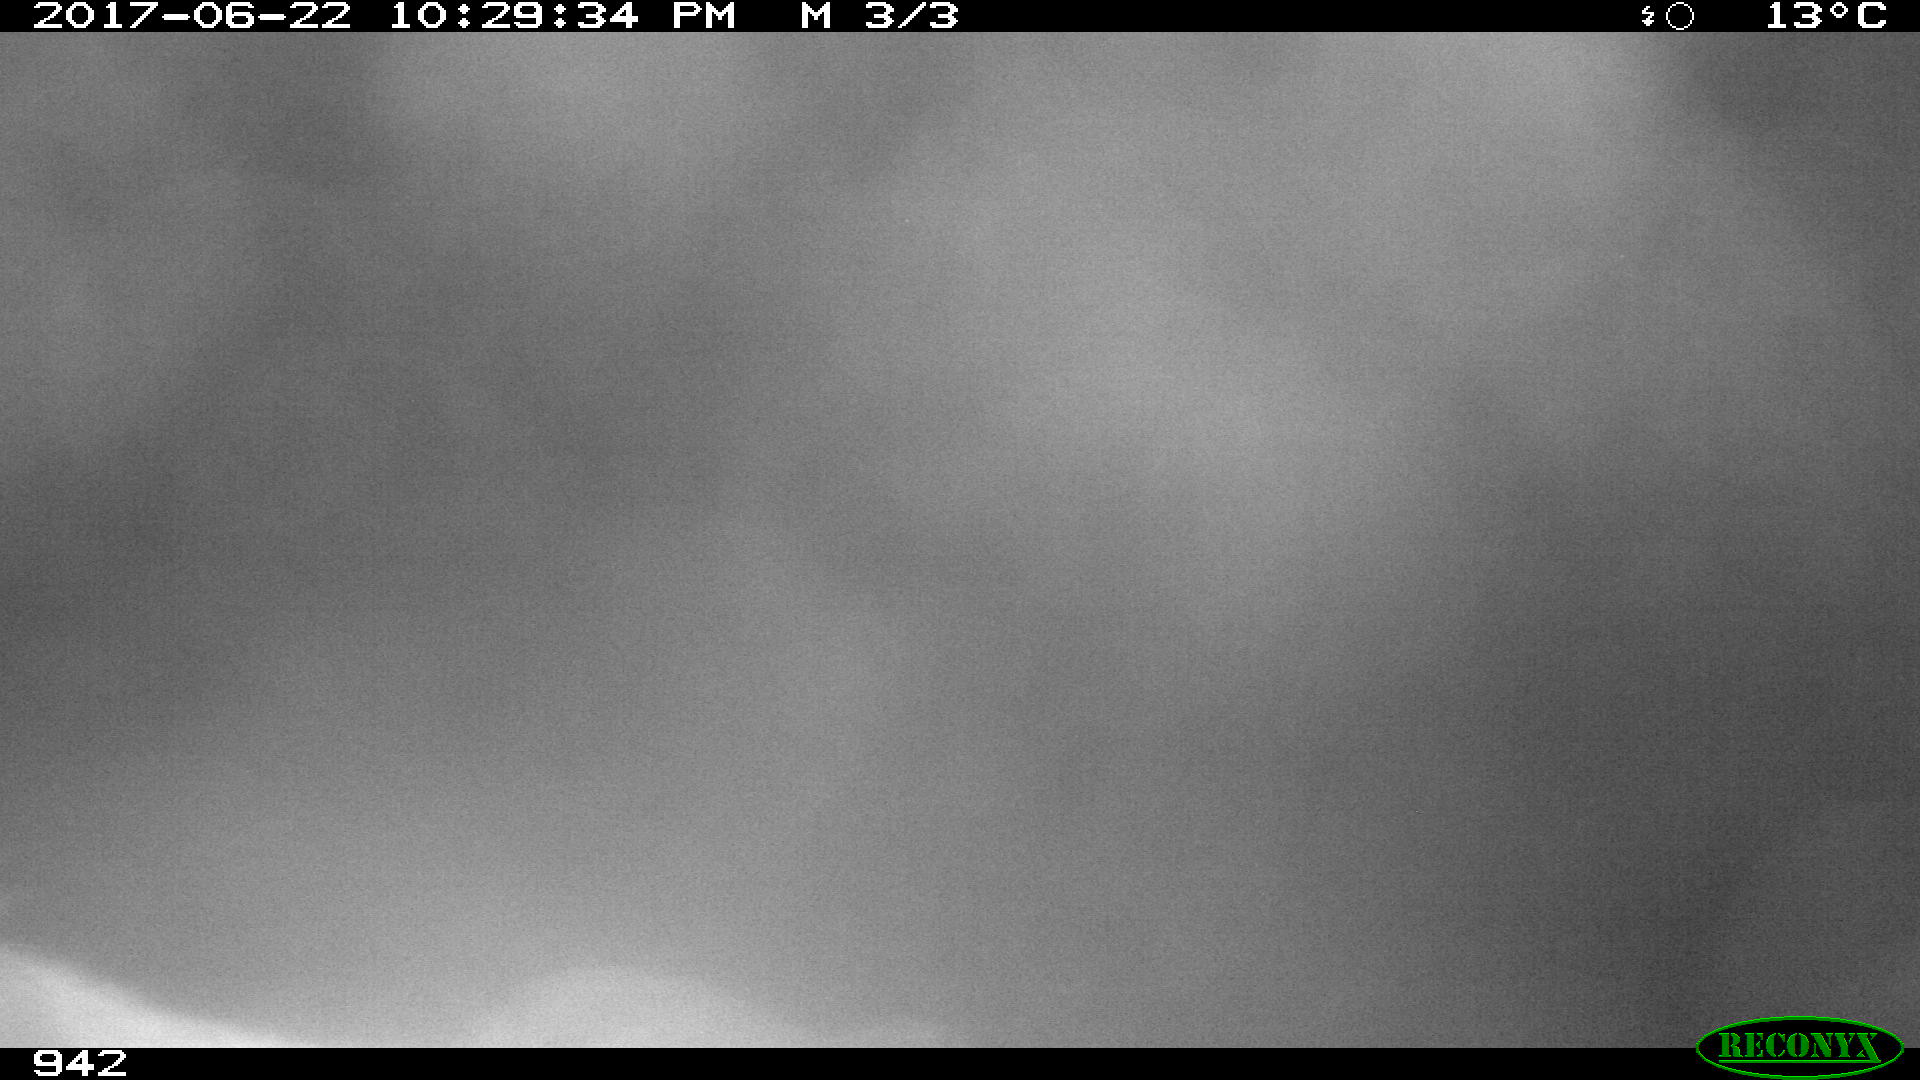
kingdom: Animalia
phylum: Chordata
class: Mammalia
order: Artiodactyla
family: Bovidae
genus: Bos
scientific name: Bos taurus
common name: Domesticated cattle
